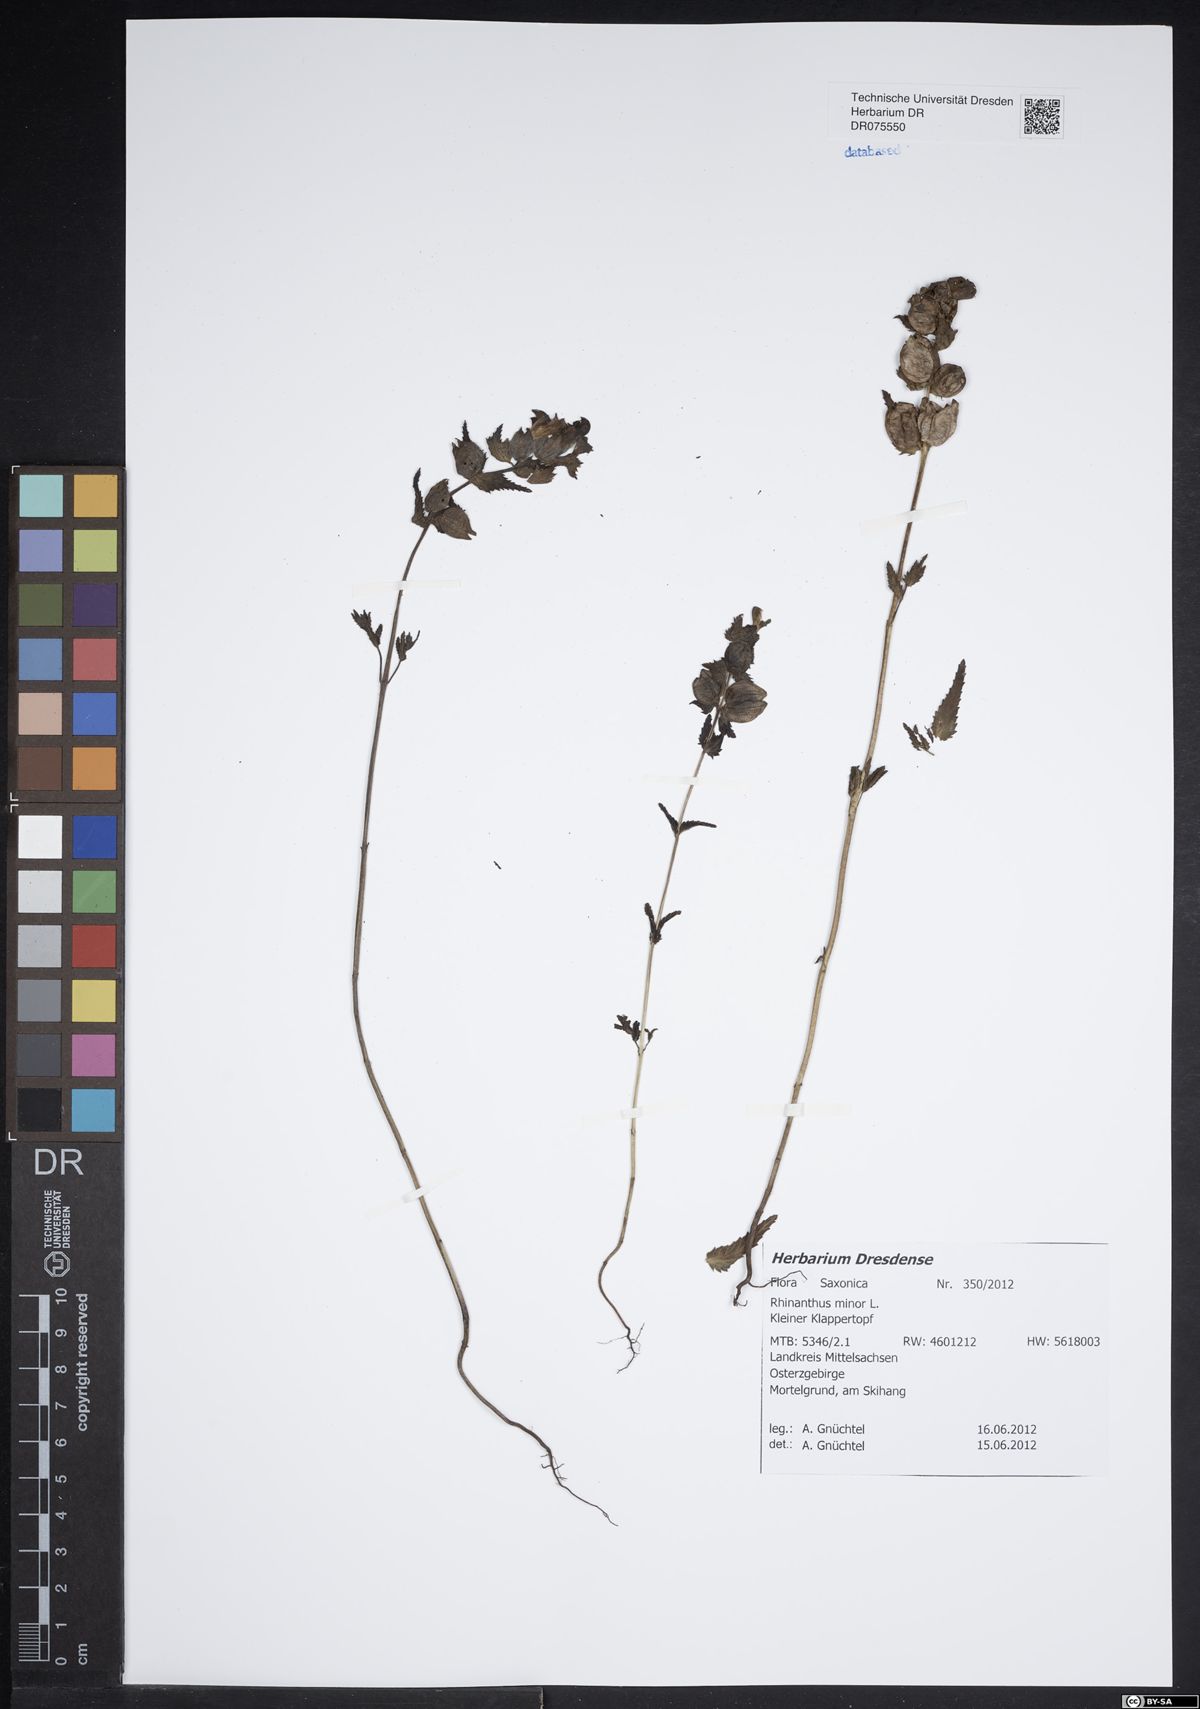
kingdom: Plantae
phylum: Tracheophyta
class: Magnoliopsida
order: Lamiales
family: Orobanchaceae
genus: Rhinanthus
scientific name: Rhinanthus minor
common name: Yellow-rattle
